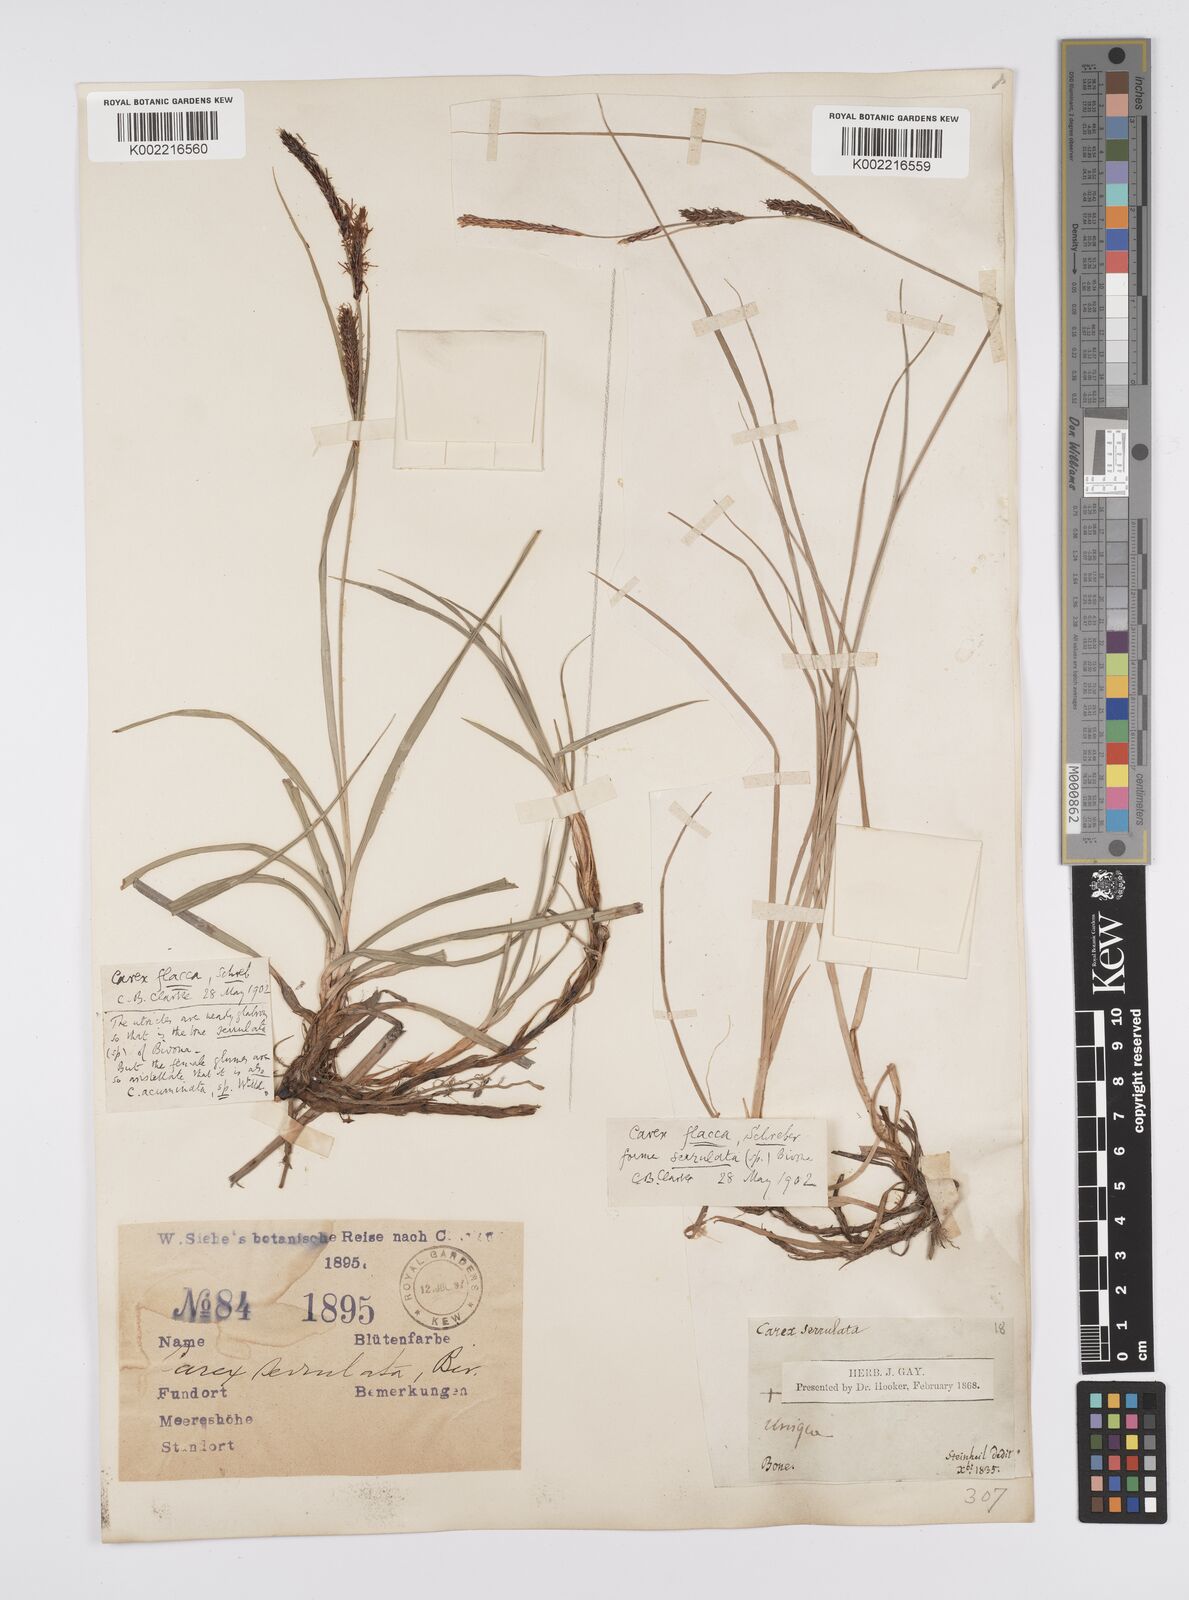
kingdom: Plantae
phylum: Tracheophyta
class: Liliopsida
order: Poales
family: Cyperaceae
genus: Carex
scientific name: Carex flacca
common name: Glaucous sedge
